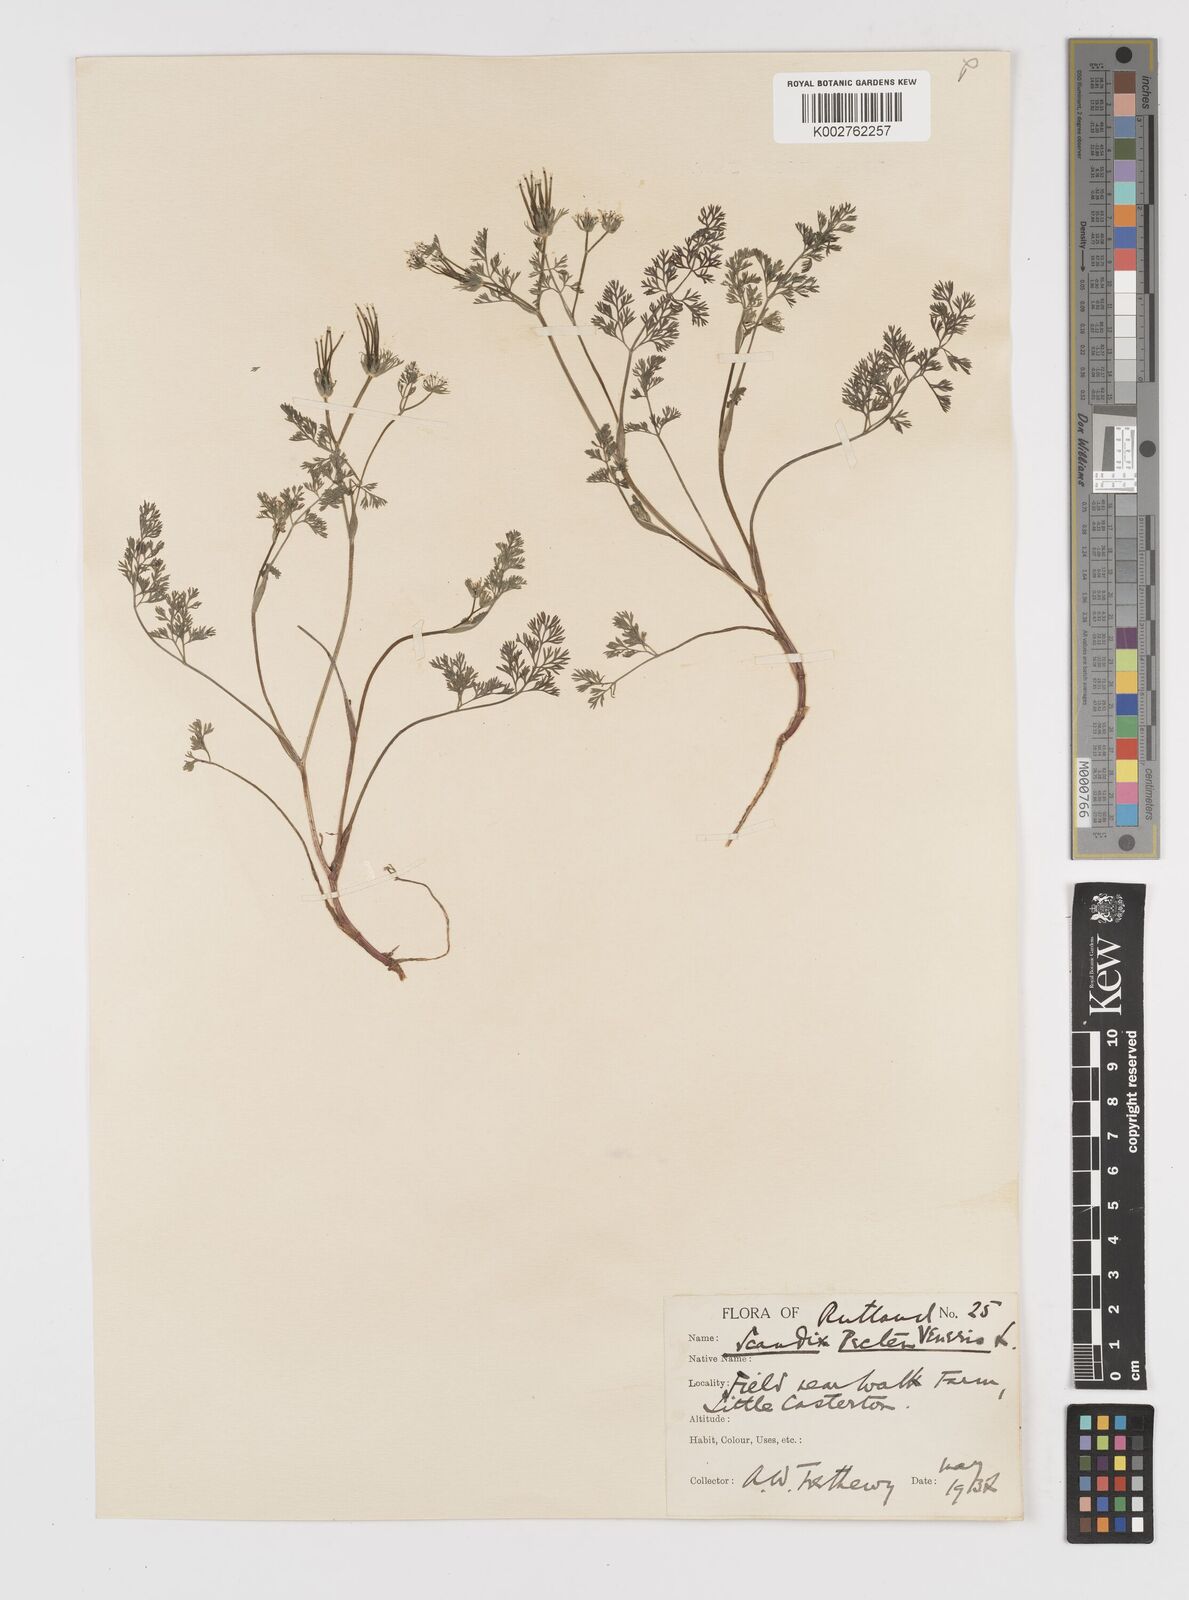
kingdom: Plantae
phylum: Tracheophyta
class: Magnoliopsida
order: Apiales
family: Apiaceae
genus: Scandix
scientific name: Scandix pecten-veneris
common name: Shepherd's-needle
